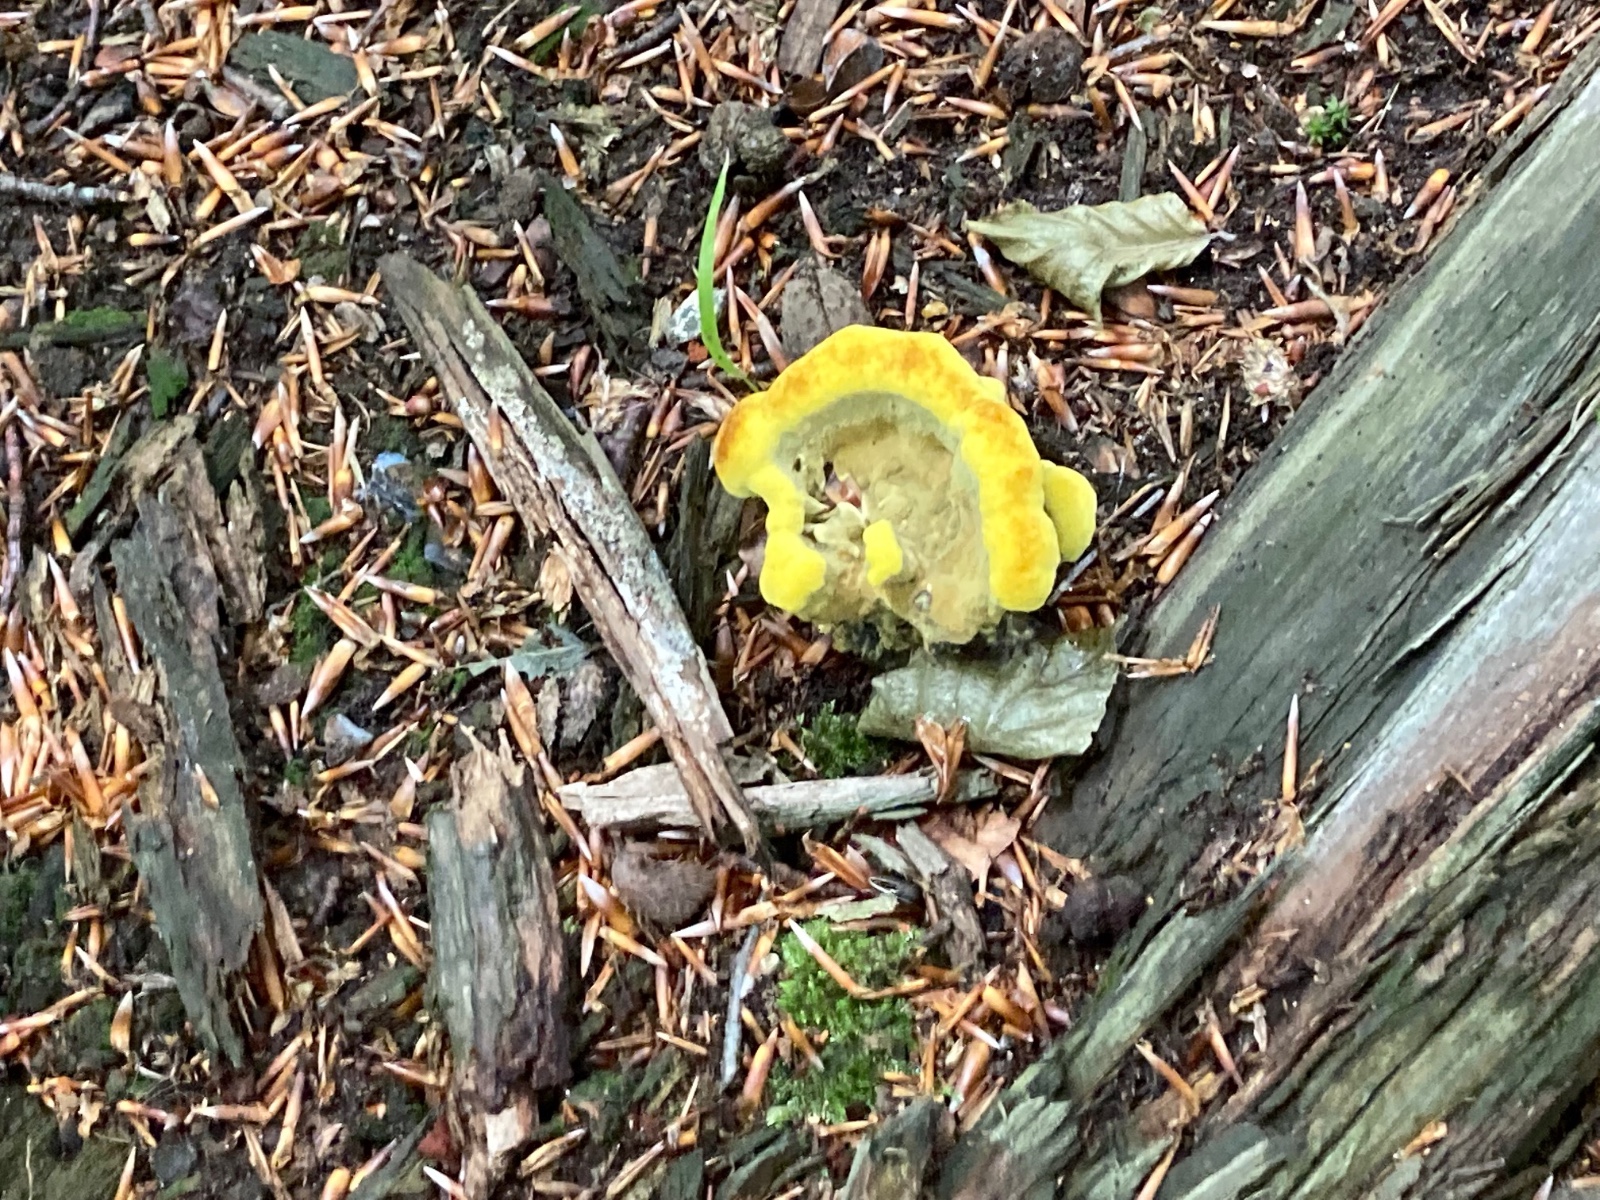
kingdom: Fungi
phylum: Basidiomycota
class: Agaricomycetes
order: Polyporales
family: Laetiporaceae
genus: Phaeolus
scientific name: Phaeolus schweinitzii
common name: brunporesvamp
